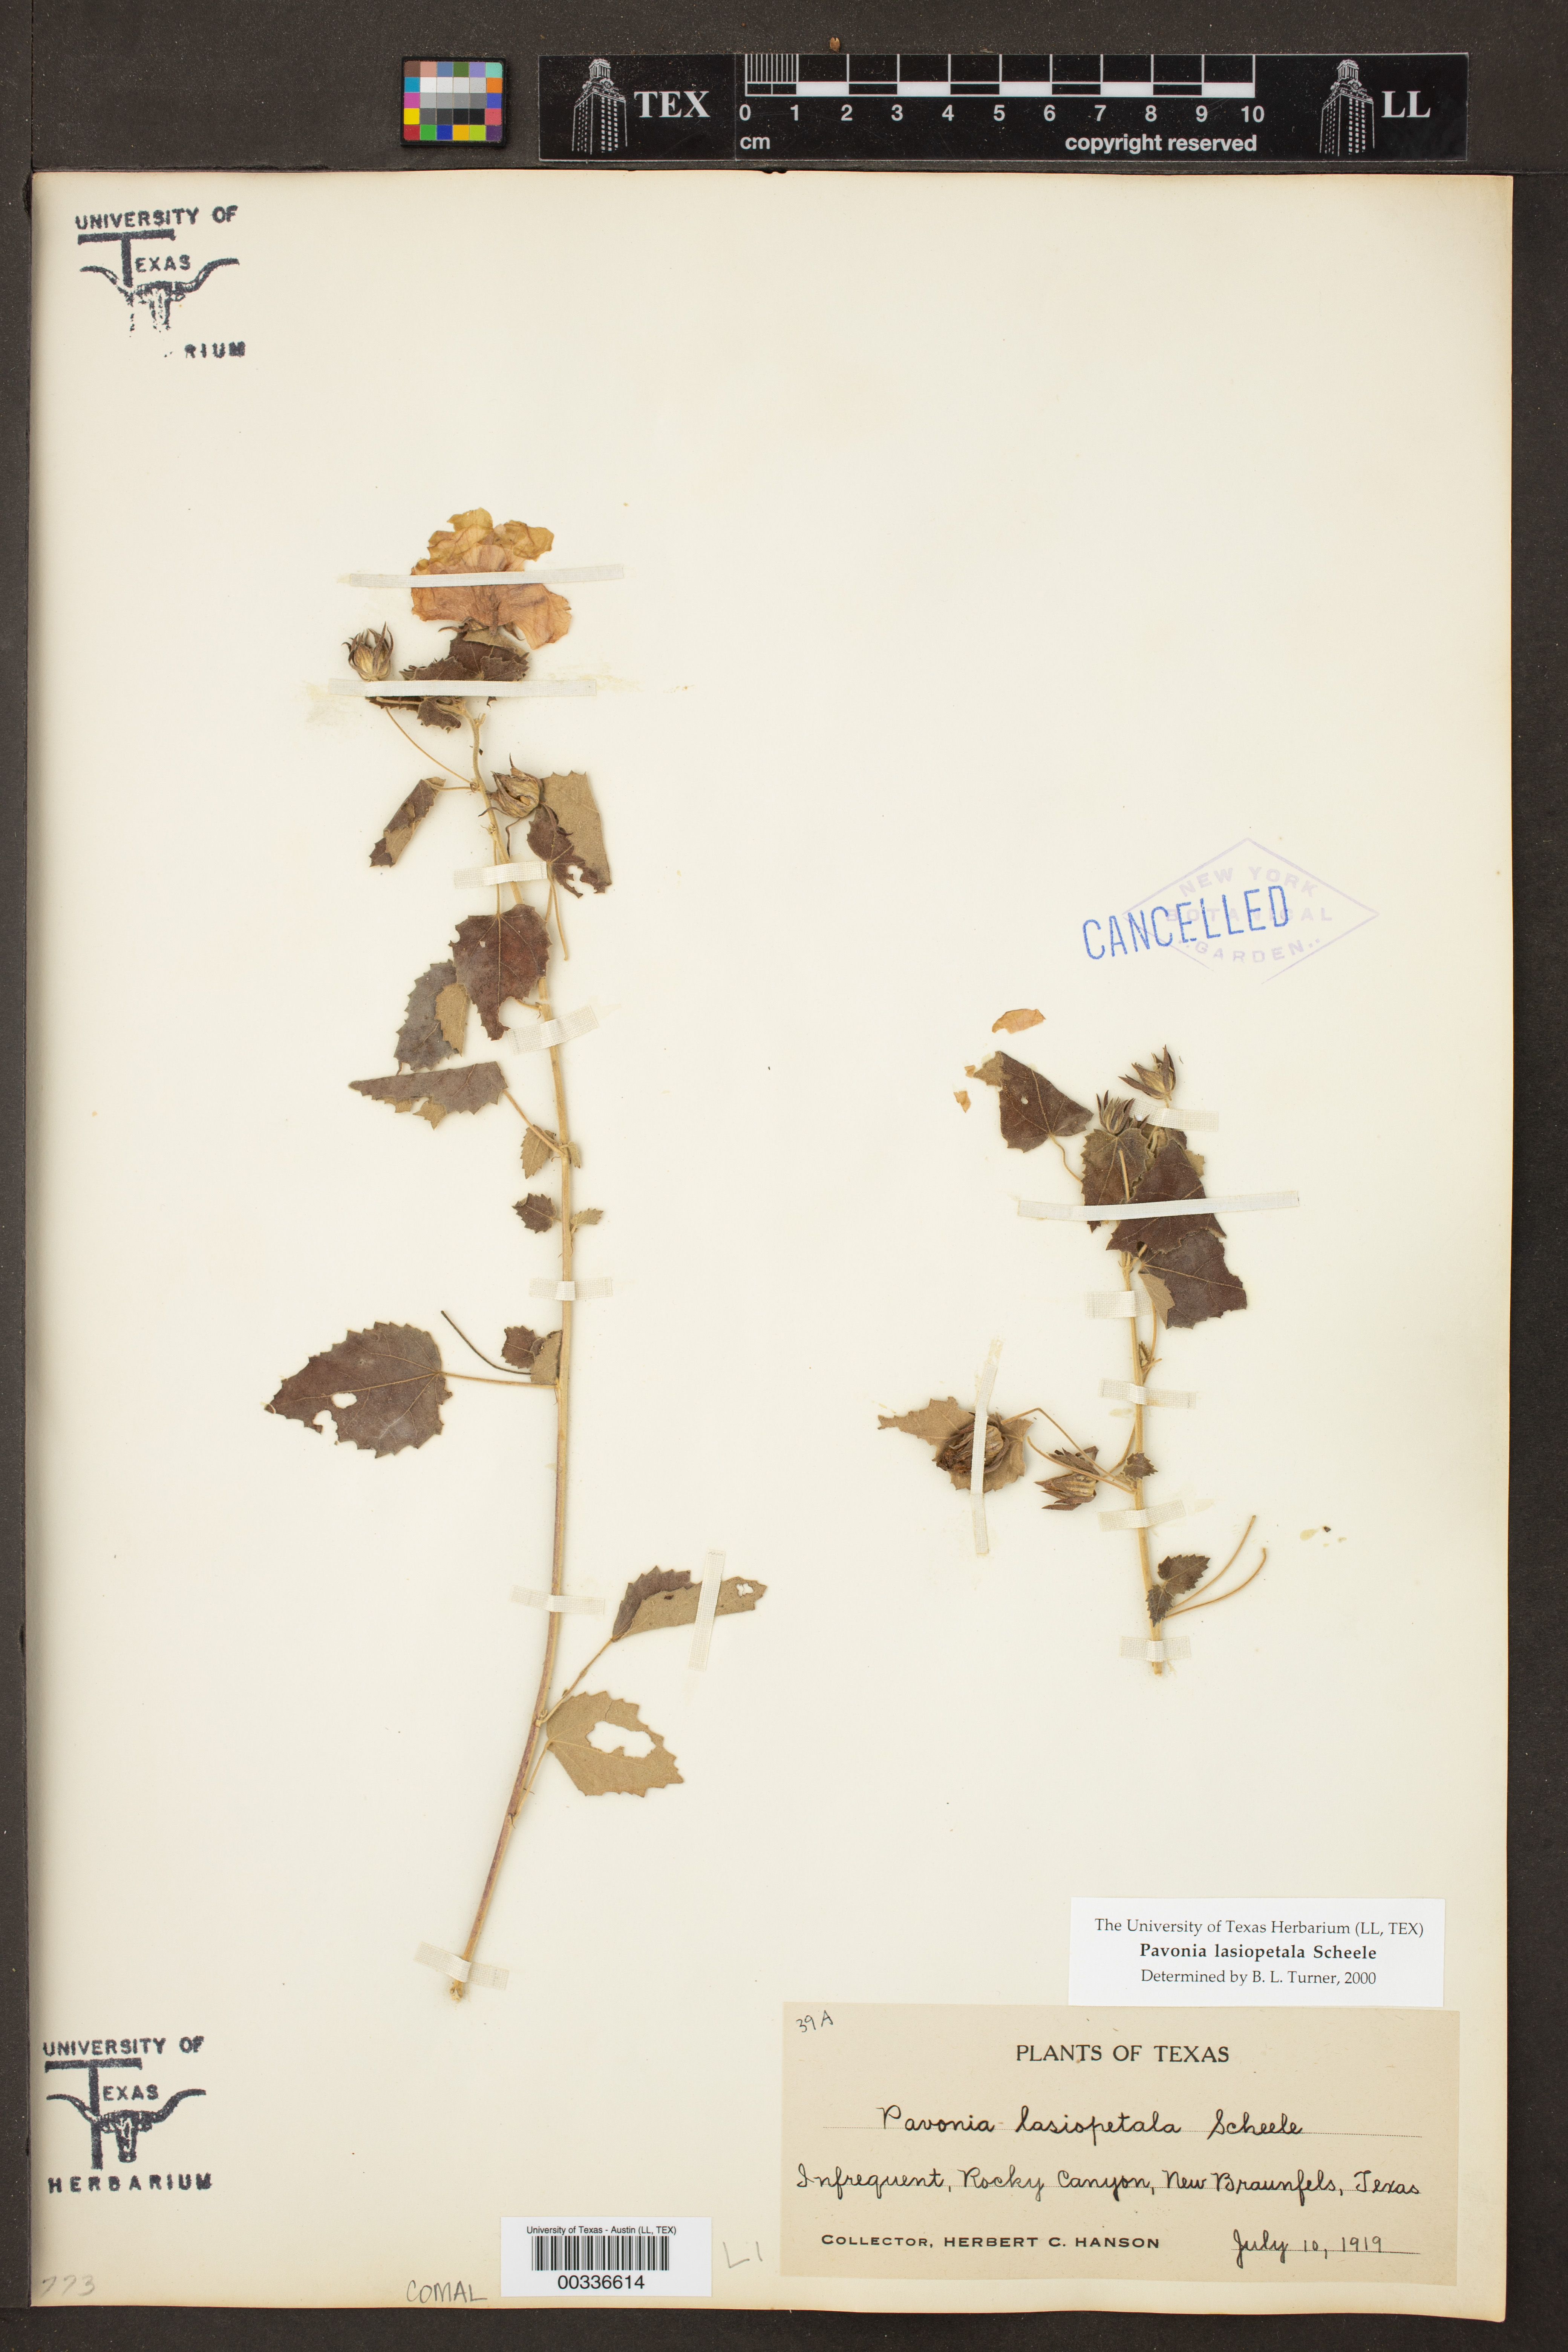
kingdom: Plantae
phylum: Tracheophyta
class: Magnoliopsida
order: Malvales
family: Malvaceae
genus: Pavonia
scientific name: Pavonia lasiopetala
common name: Texas swamp-mallow
